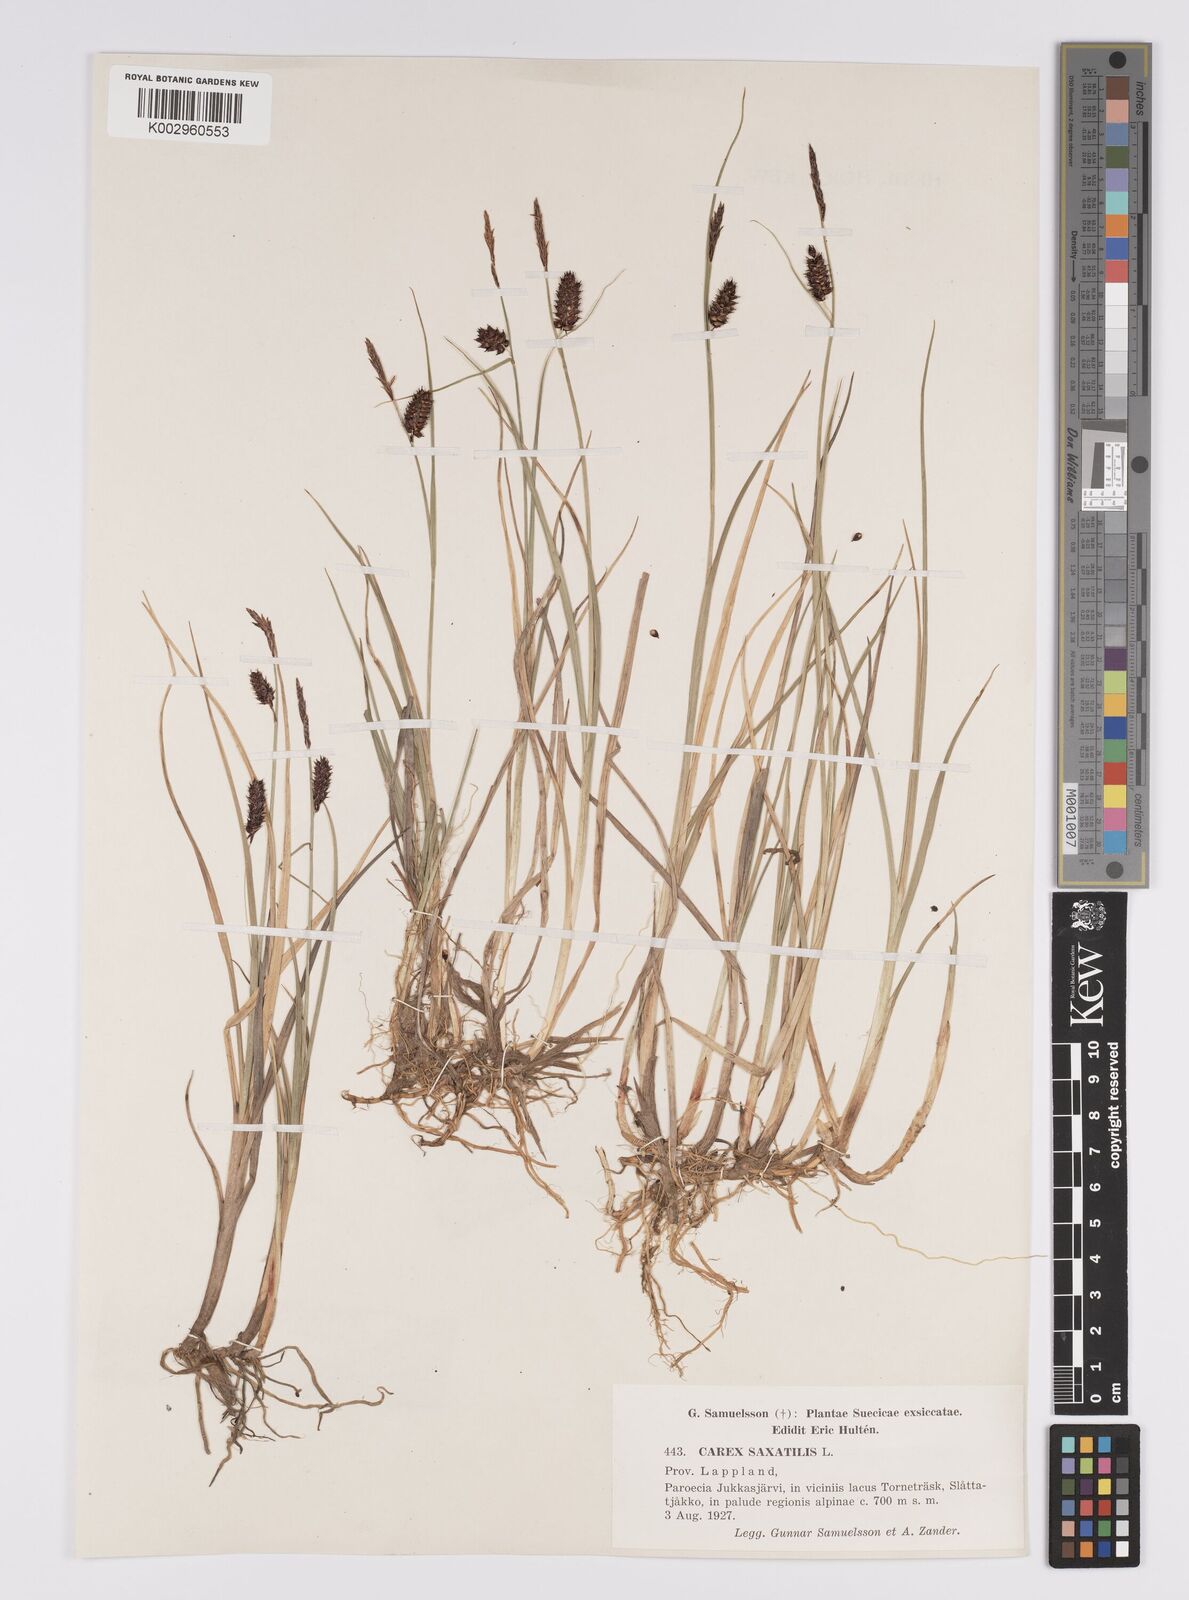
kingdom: Plantae
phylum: Tracheophyta
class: Liliopsida
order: Poales
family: Cyperaceae
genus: Carex
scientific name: Carex saxatilis
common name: Russet sedge
